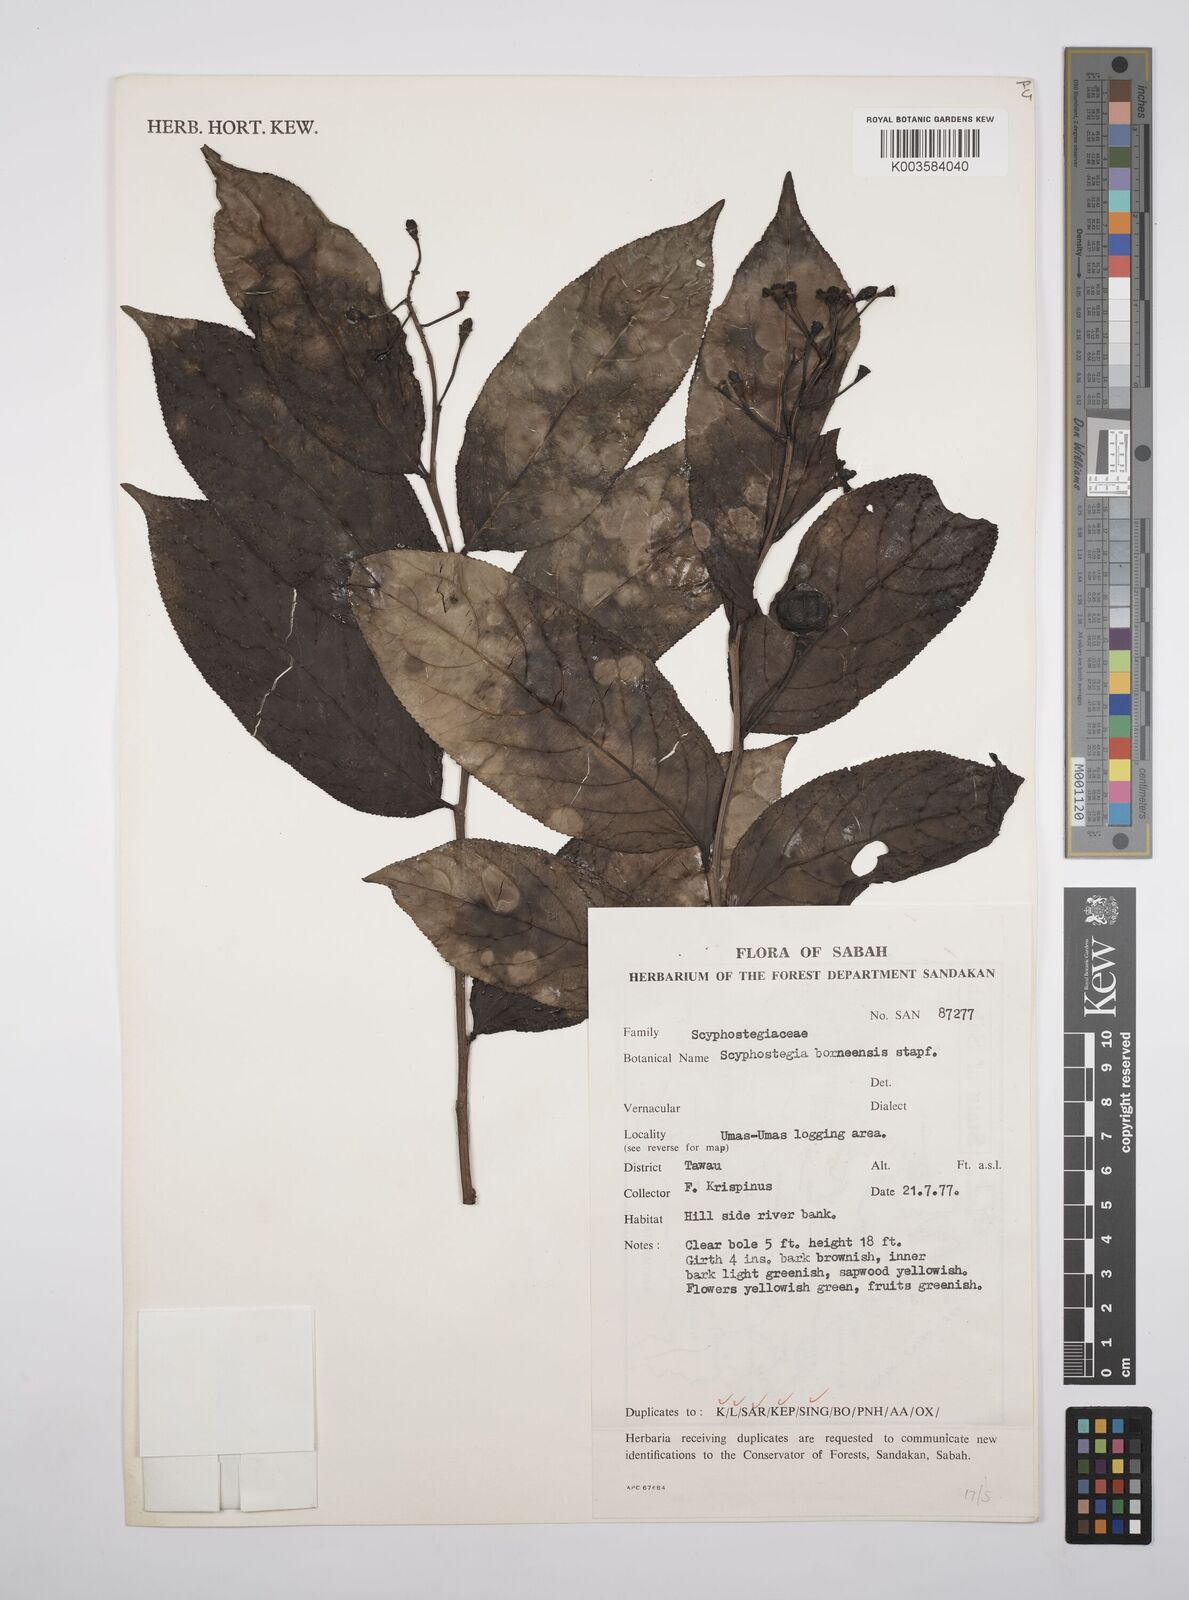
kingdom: Plantae
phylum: Tracheophyta
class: Magnoliopsida
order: Malpighiales
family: Salicaceae
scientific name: Salicaceae
